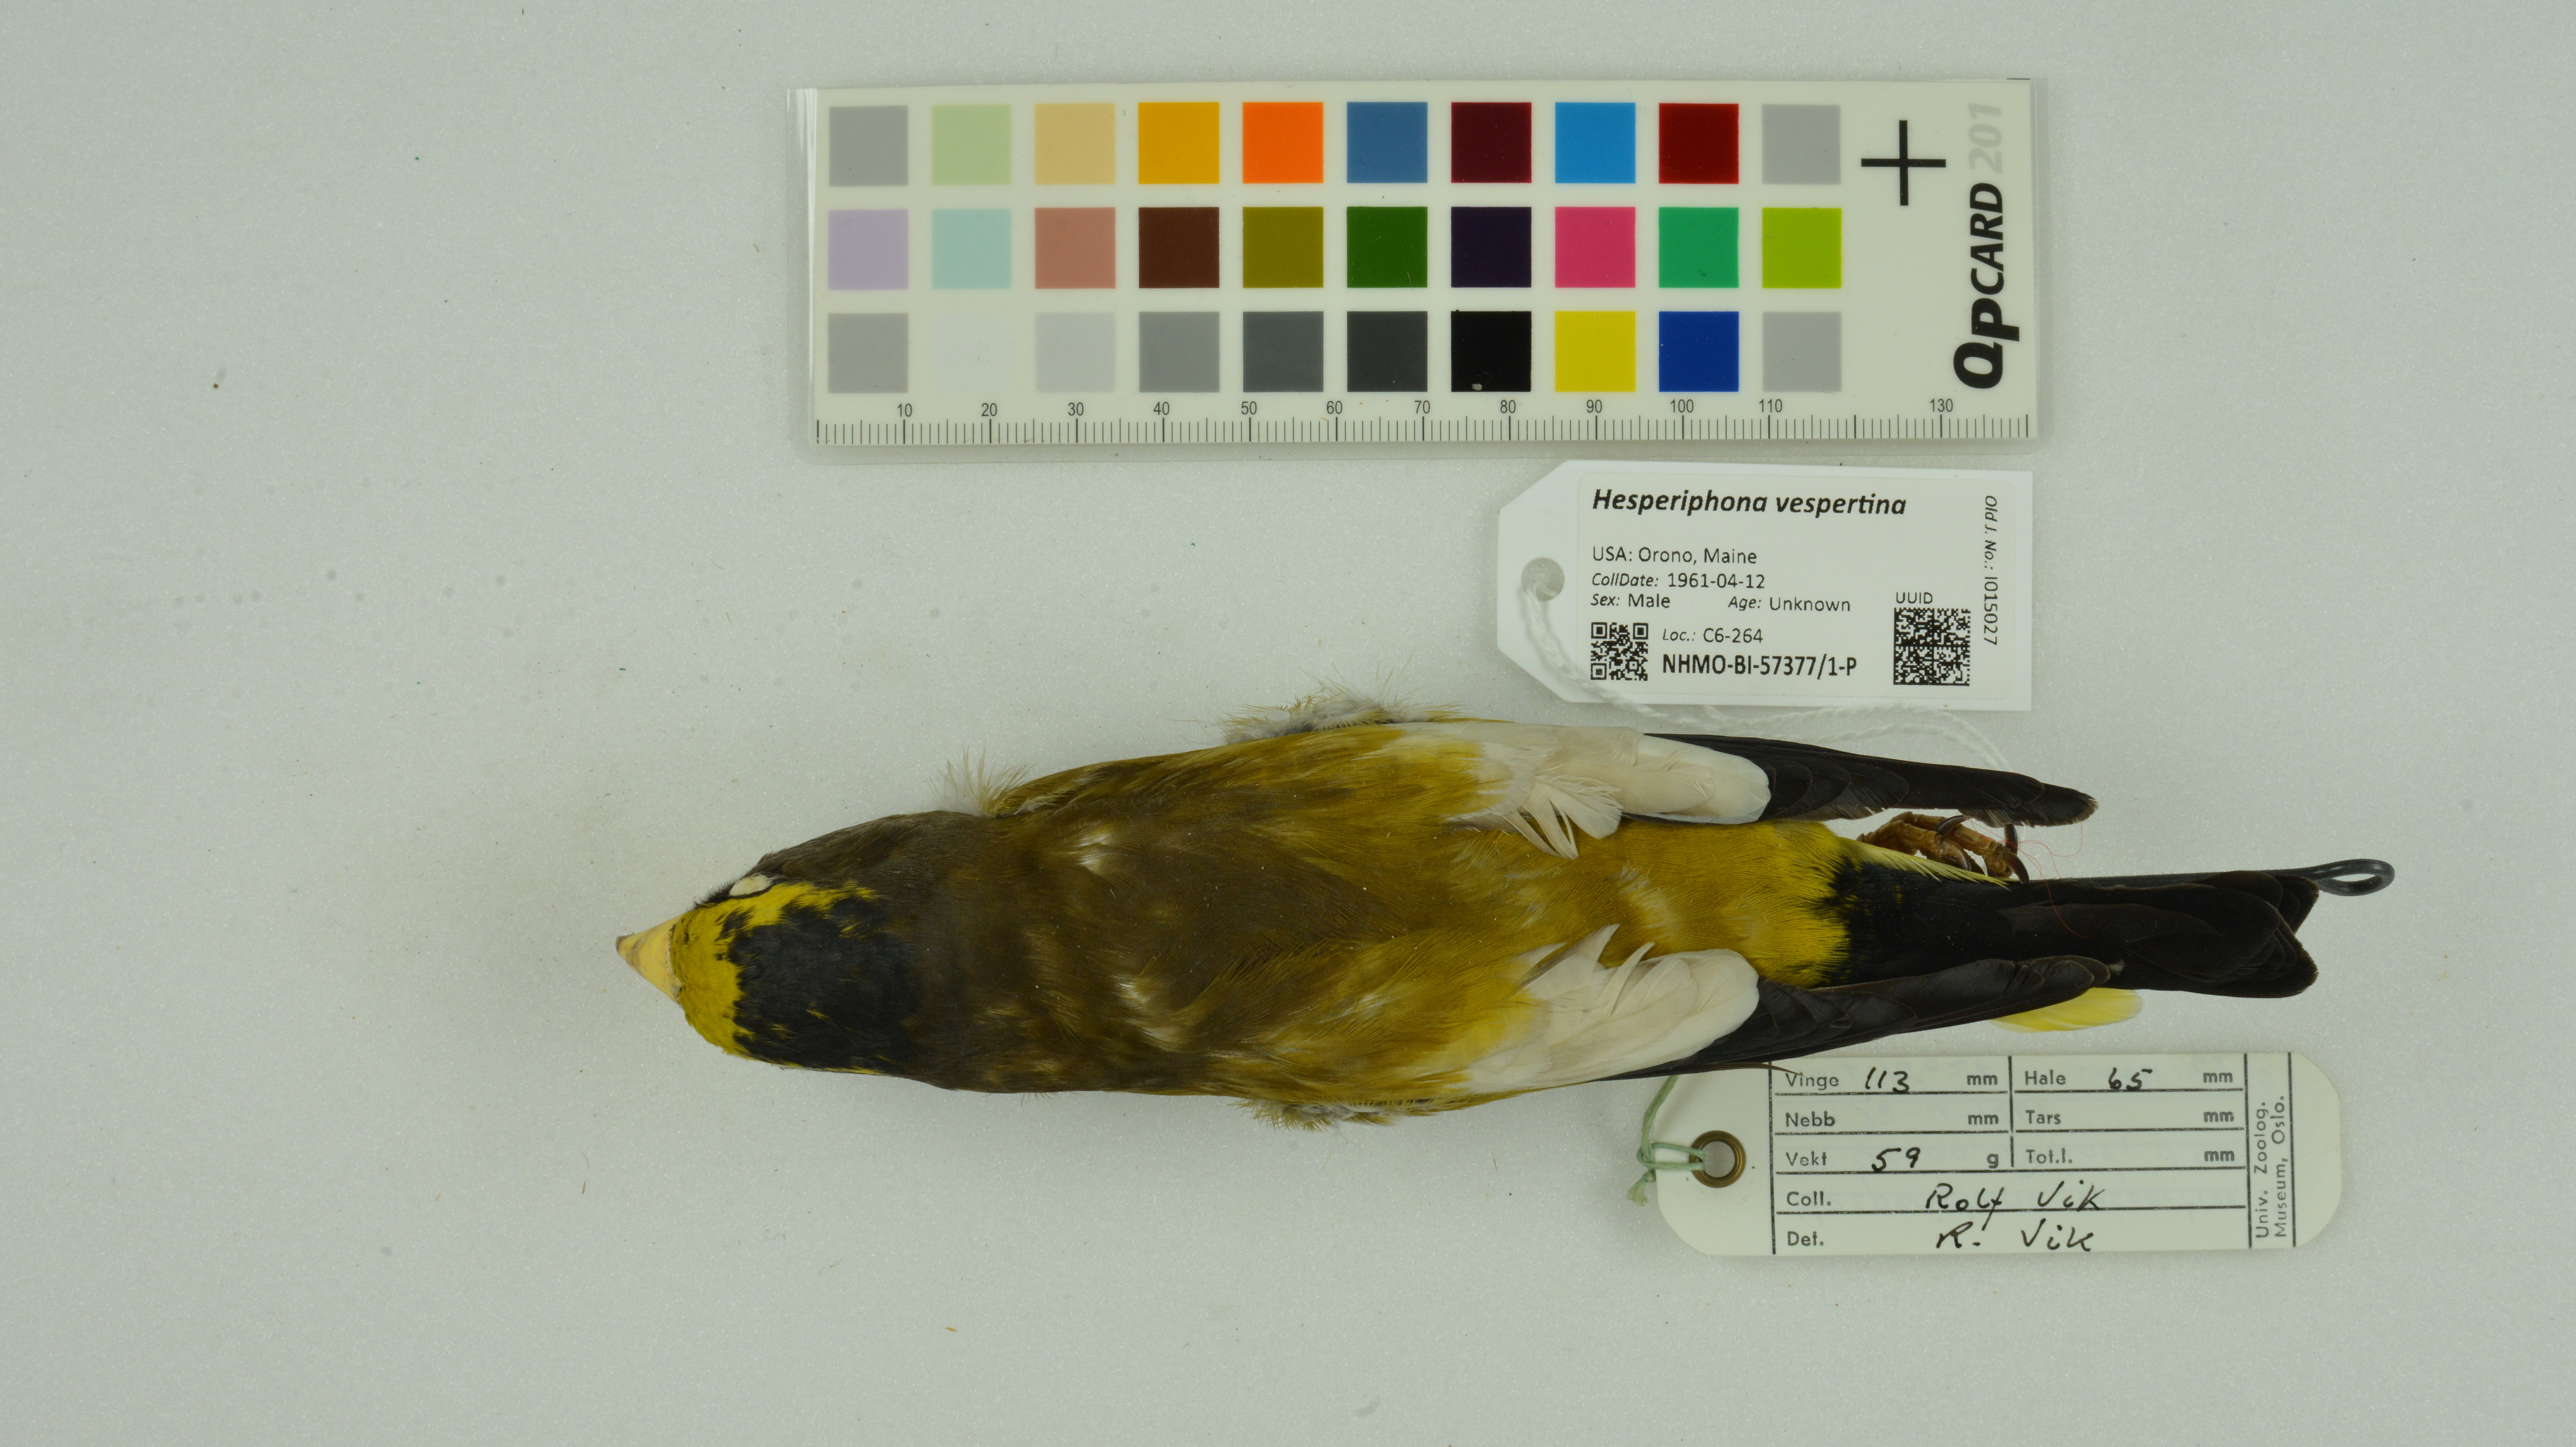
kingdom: Animalia
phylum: Chordata
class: Aves
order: Passeriformes
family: Fringillidae
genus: Hesperiphona
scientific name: Hesperiphona vespertina
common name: Evening grosbeak
